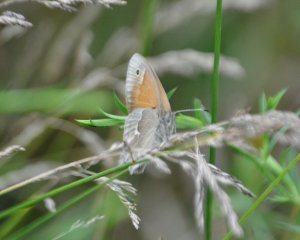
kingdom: Animalia
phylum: Arthropoda
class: Insecta
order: Lepidoptera
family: Nymphalidae
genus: Coenonympha
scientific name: Coenonympha tullia
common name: Large Heath
